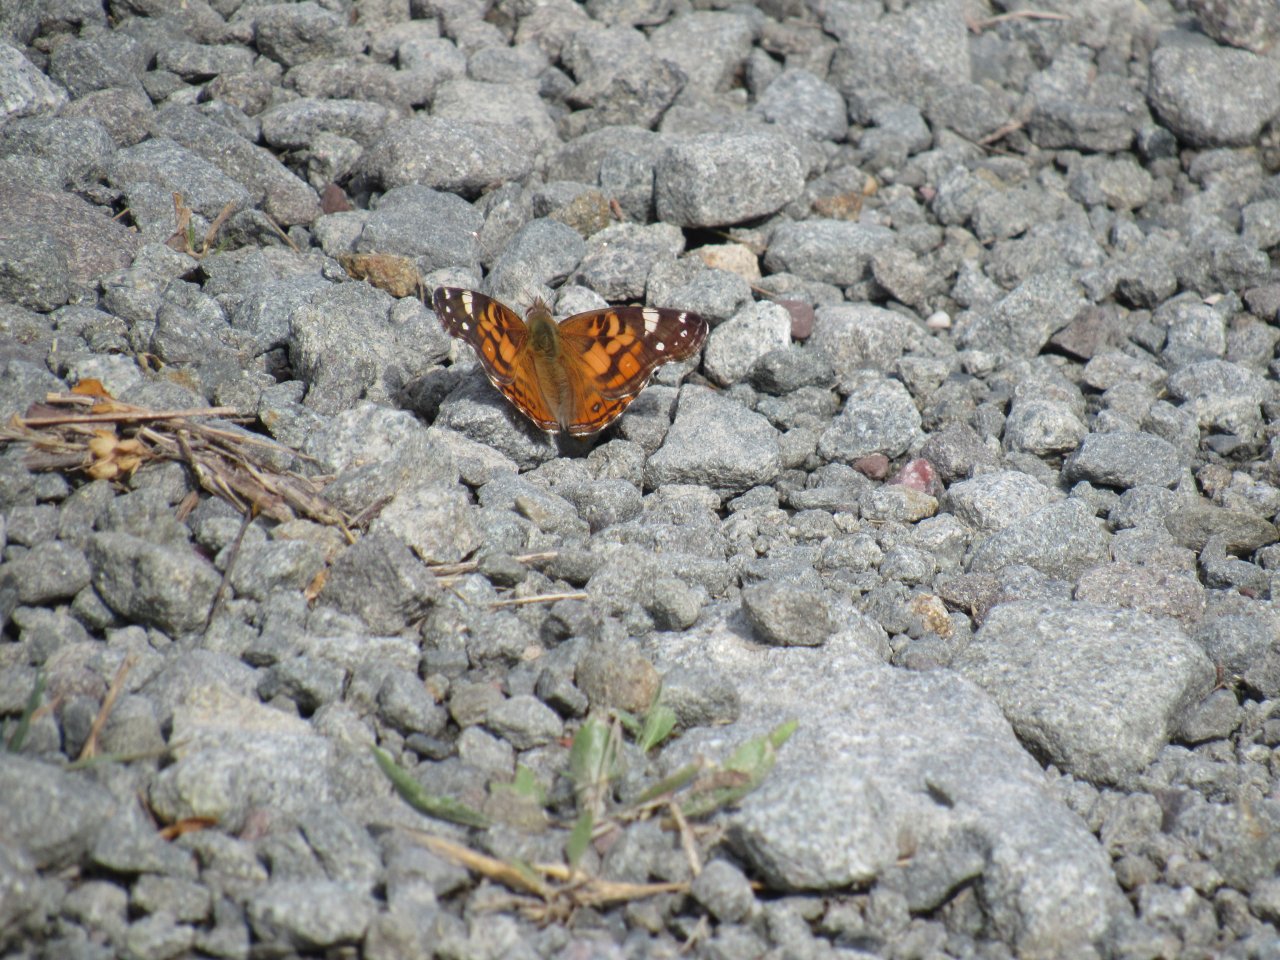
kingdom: Animalia
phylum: Arthropoda
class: Insecta
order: Lepidoptera
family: Nymphalidae
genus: Vanessa
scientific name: Vanessa virginiensis
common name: American Lady
